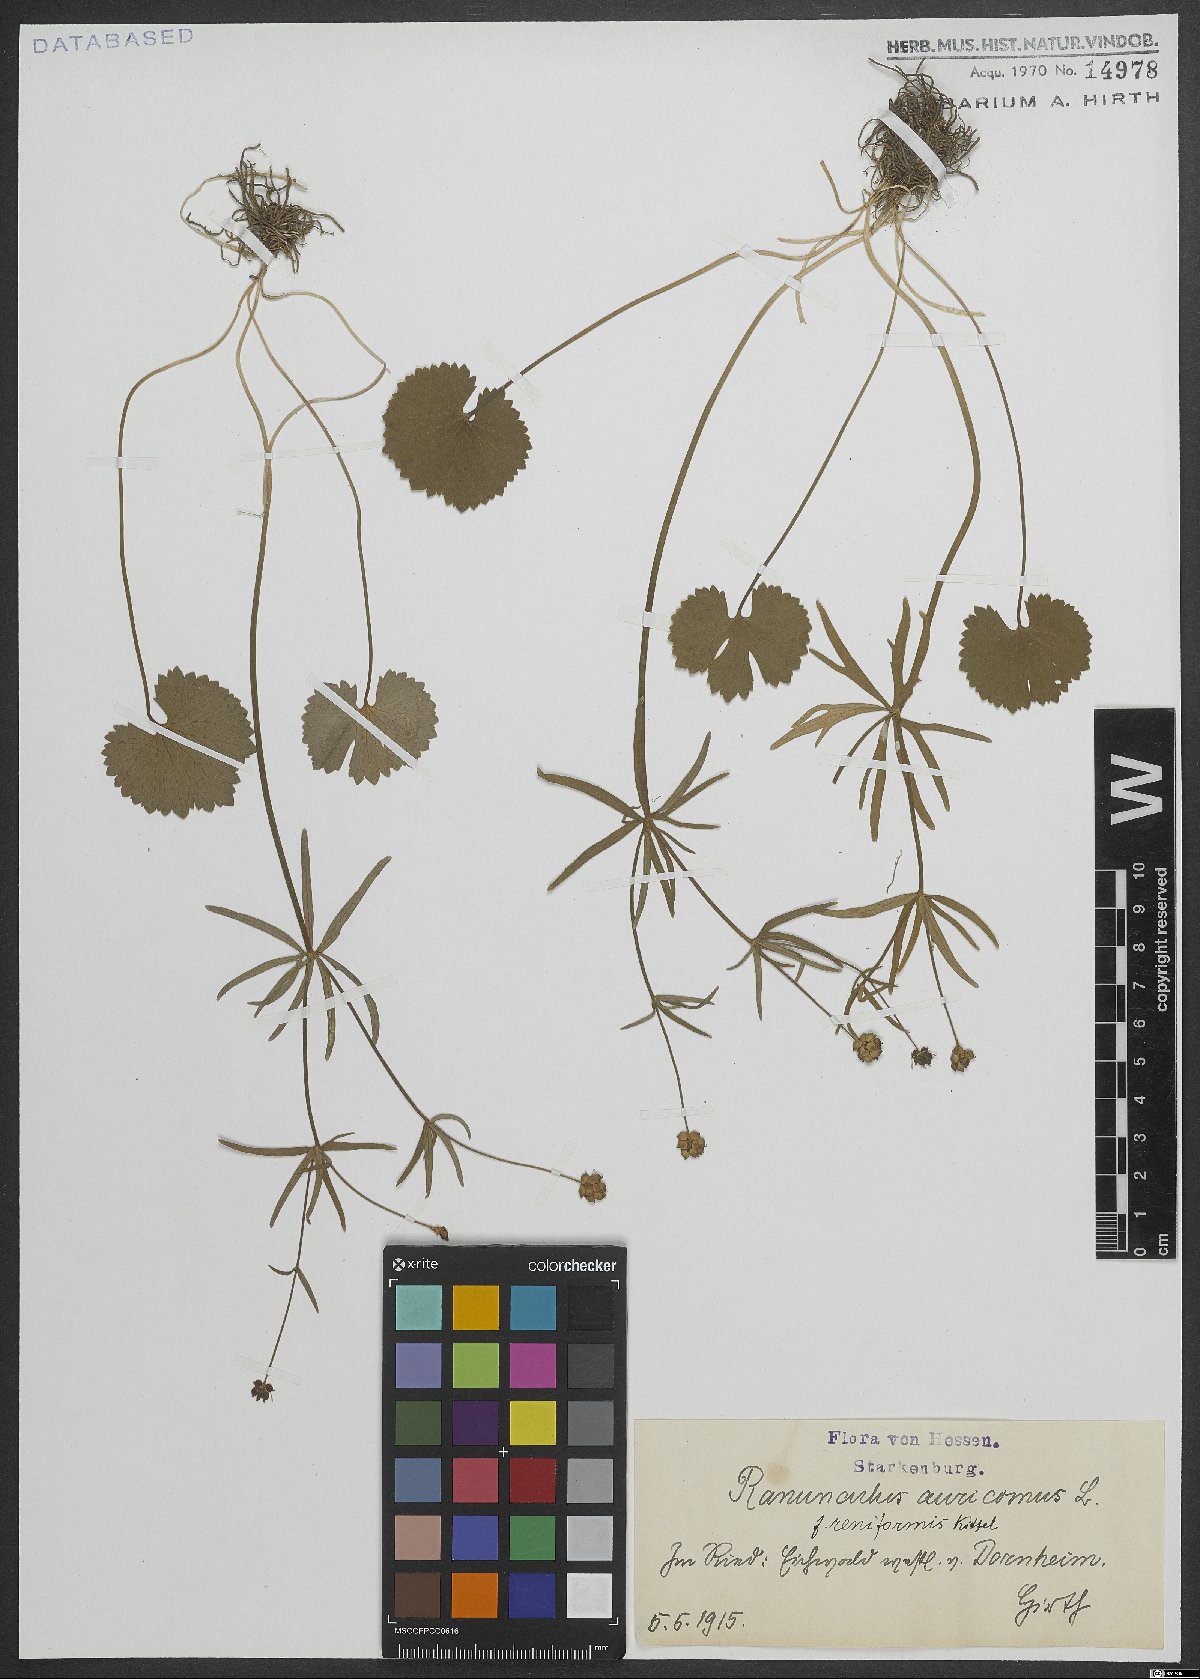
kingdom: Plantae
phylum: Tracheophyta
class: Magnoliopsida
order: Ranunculales
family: Ranunculaceae
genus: Ranunculus
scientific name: Ranunculus auricomus
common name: Goldilocks buttercup
